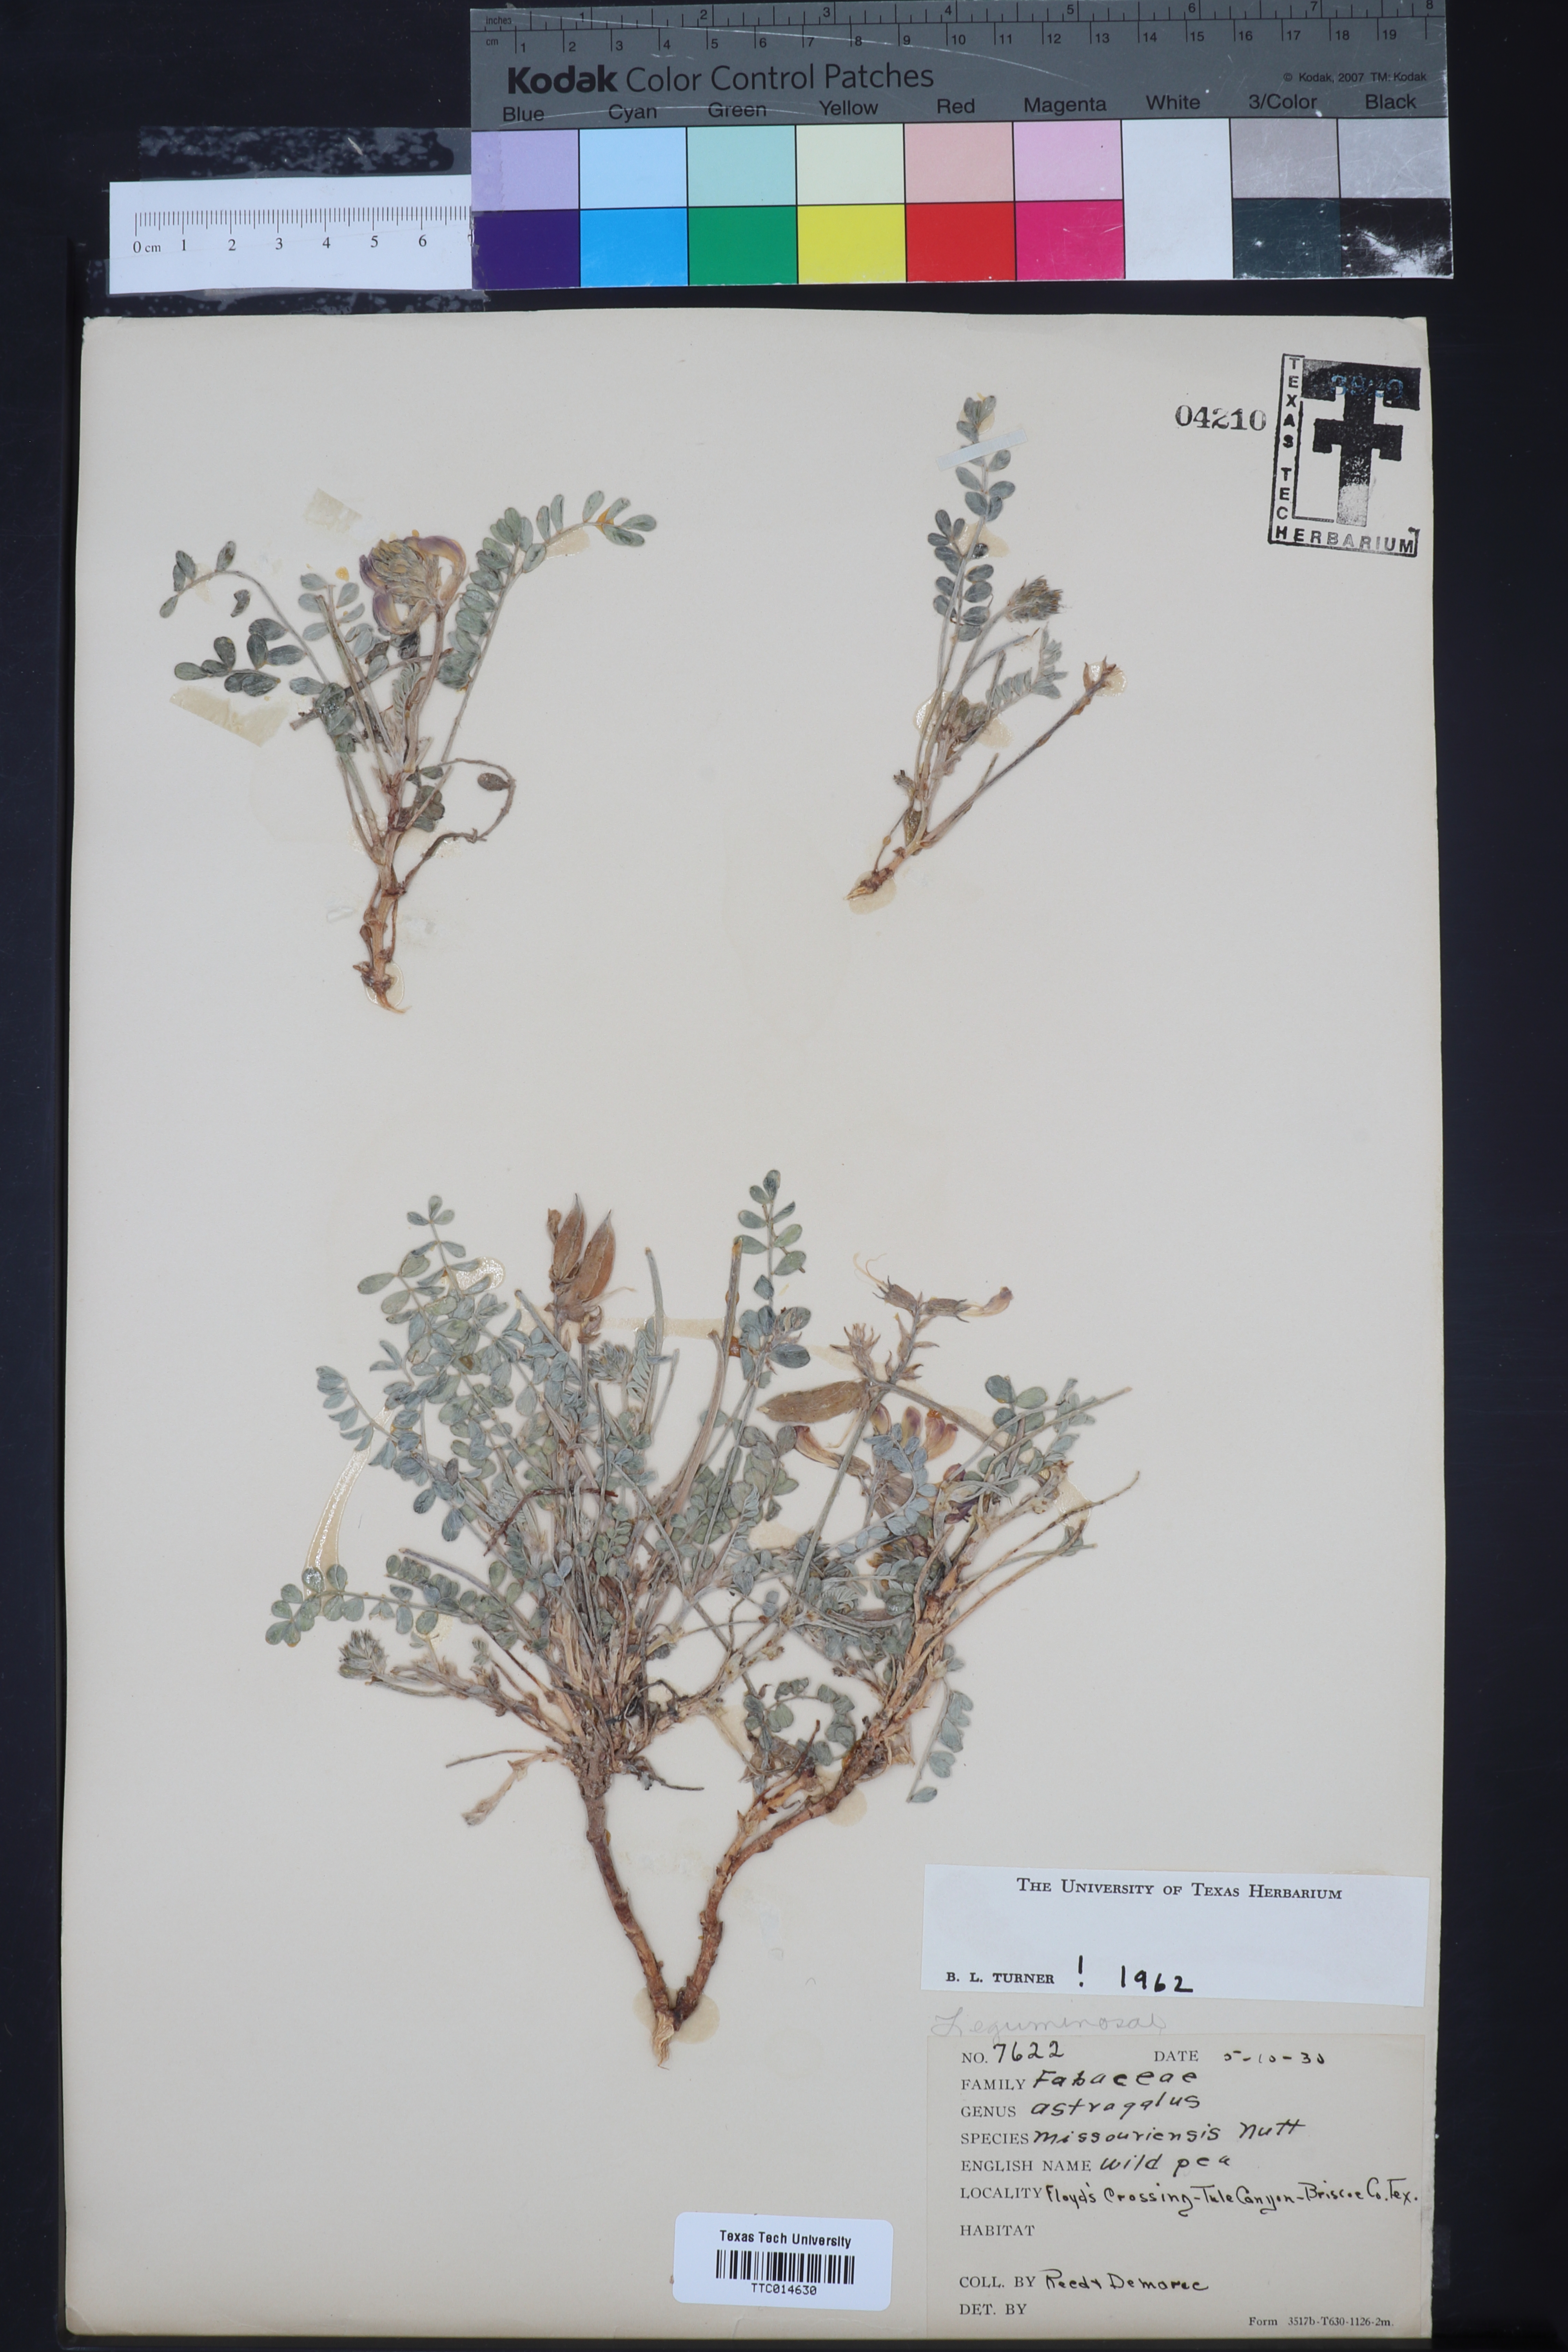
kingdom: Plantae
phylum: Tracheophyta
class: Magnoliopsida
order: Fabales
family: Fabaceae
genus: Astragalus
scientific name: Astragalus missouriensis
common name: Missouri milk-vetch
